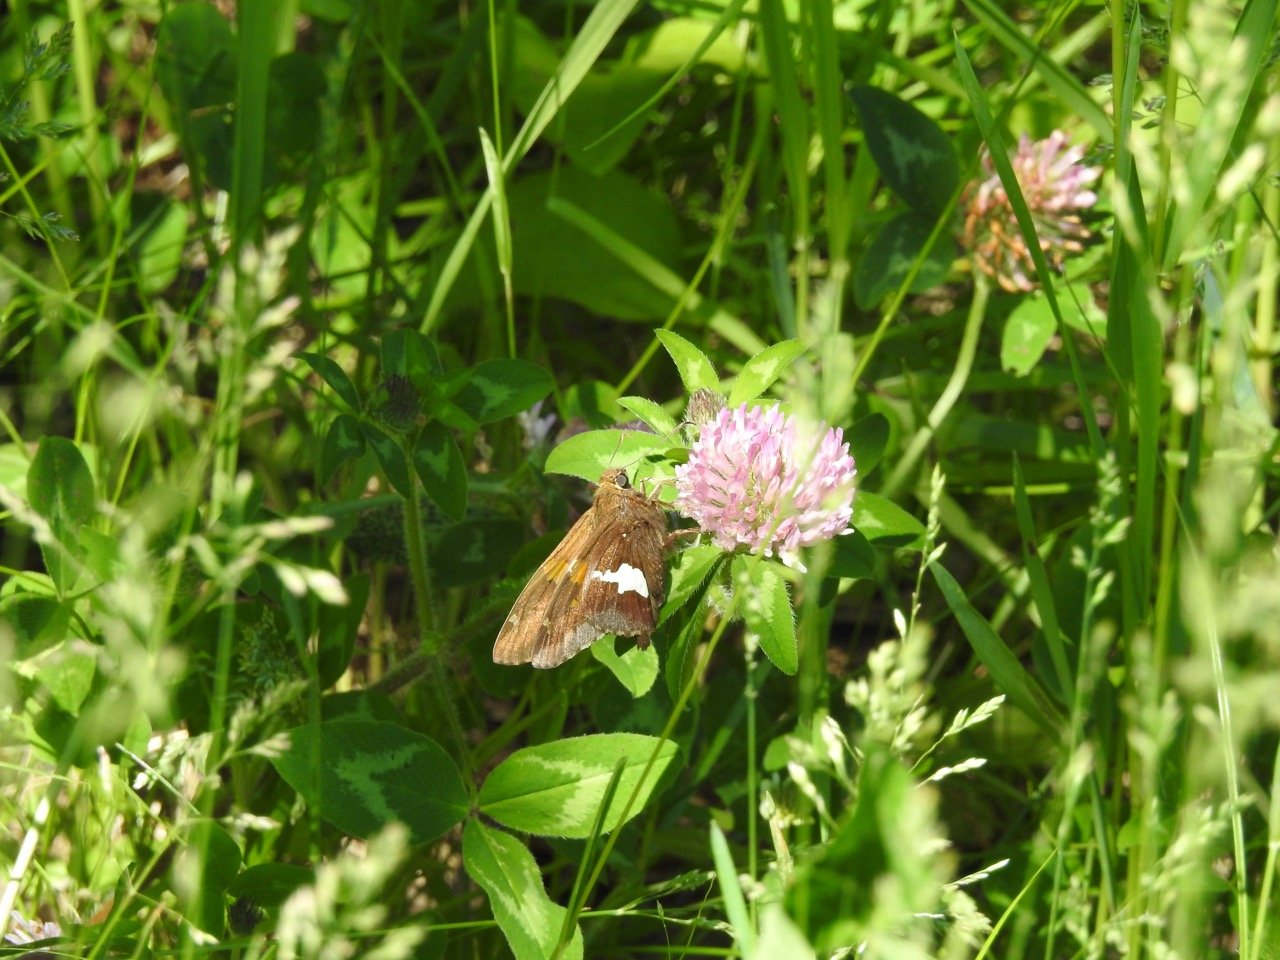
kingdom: Animalia
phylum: Arthropoda
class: Insecta
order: Lepidoptera
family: Hesperiidae
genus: Epargyreus
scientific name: Epargyreus clarus
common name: Silver-spotted Skipper
